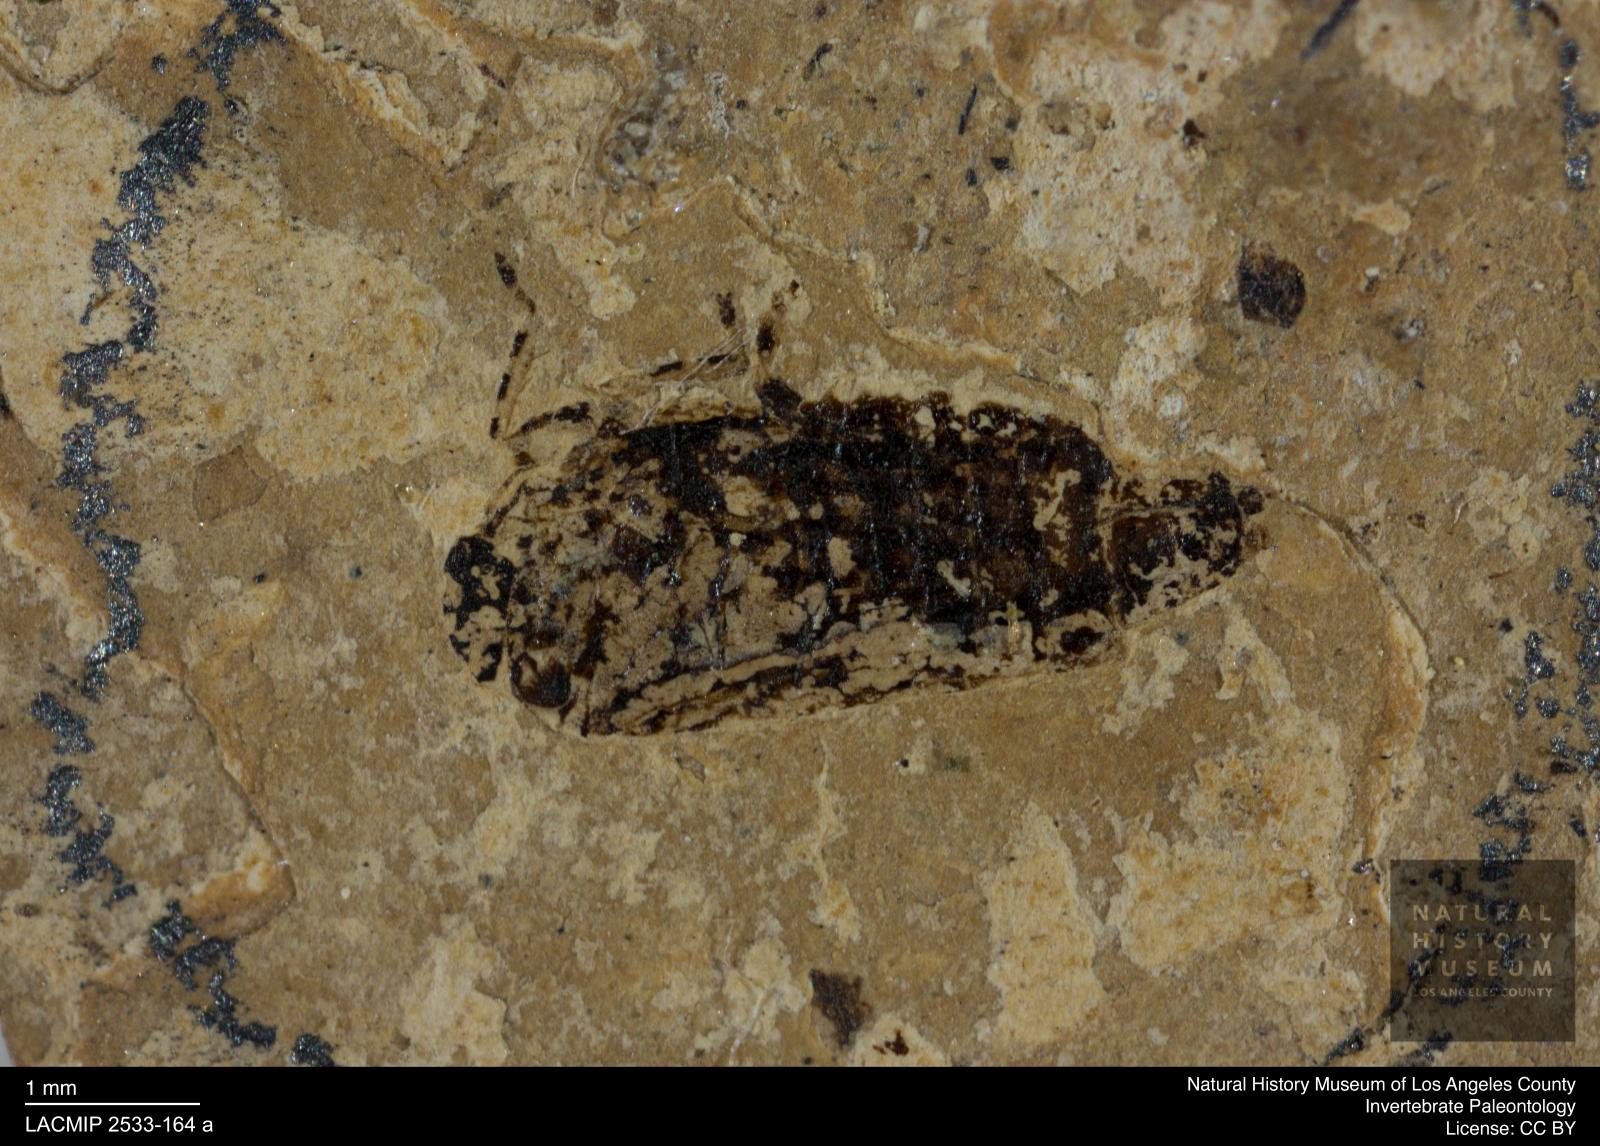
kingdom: Animalia
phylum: Arthropoda
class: Insecta
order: Hemiptera
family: Cicadellidae
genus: Deltocephalus
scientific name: Deltocephalus nervosus
